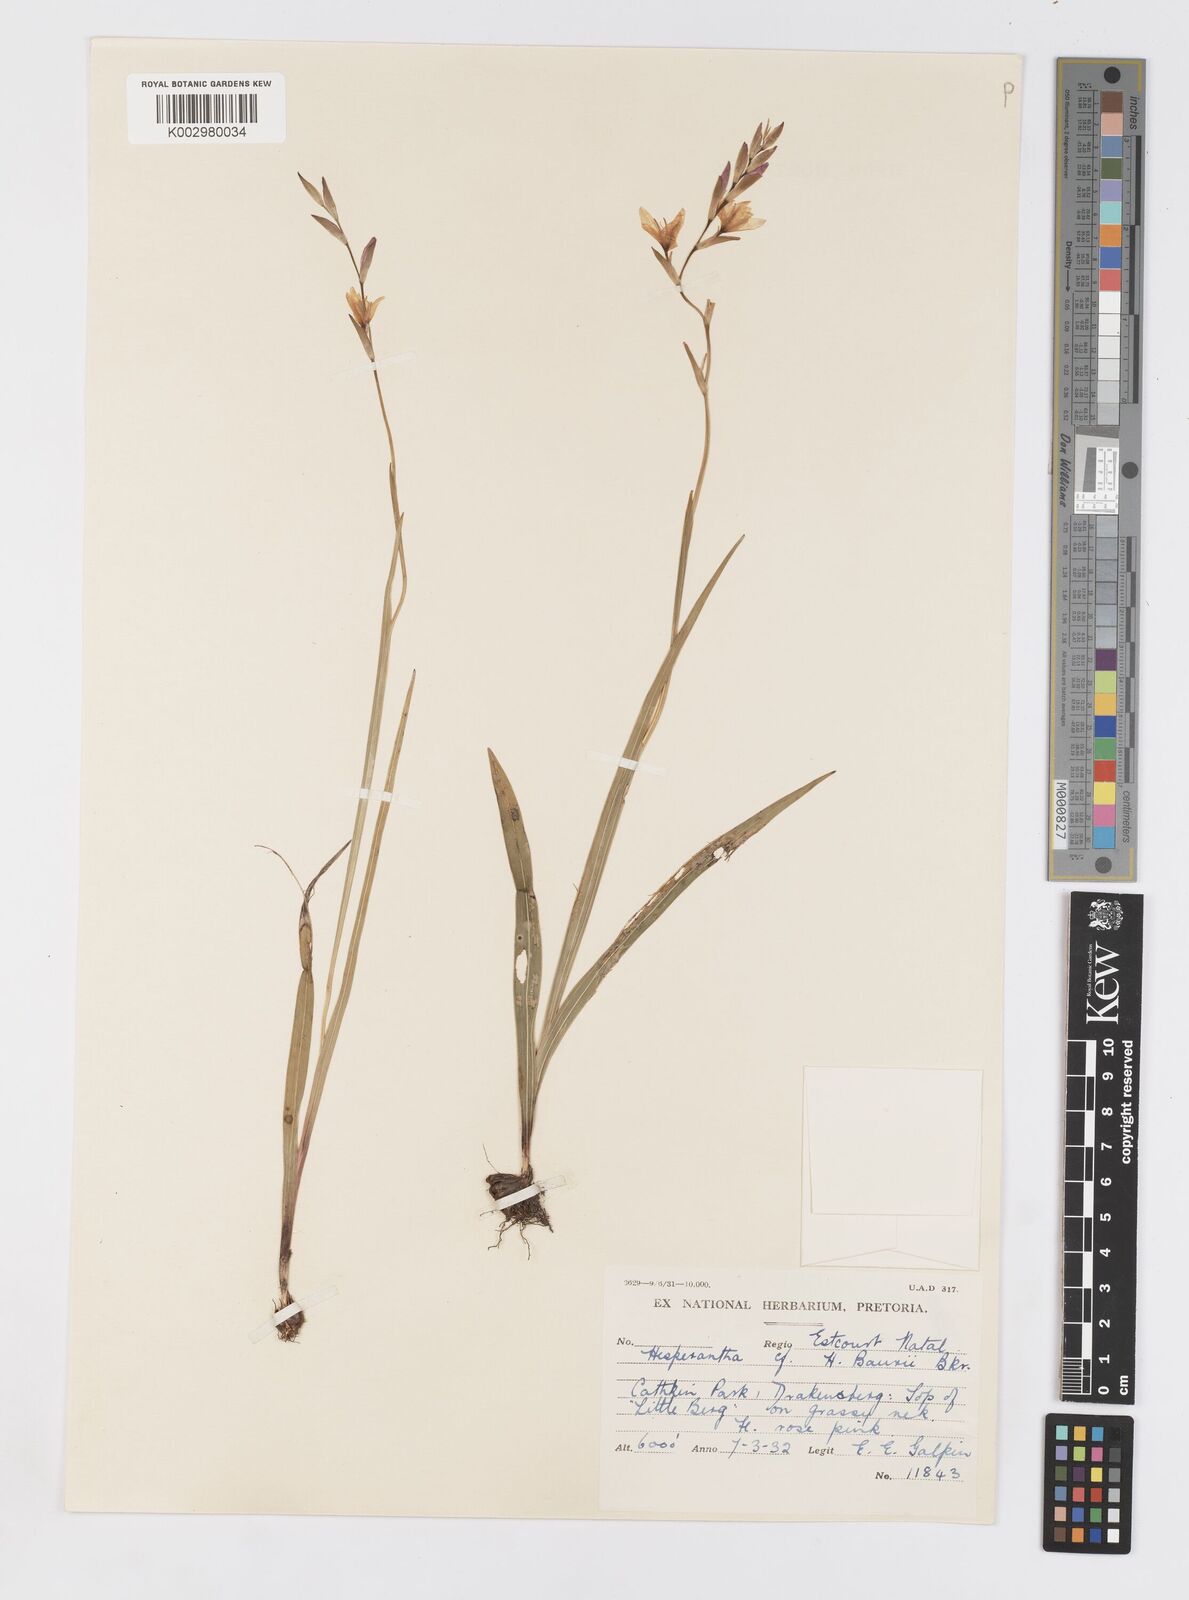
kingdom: Plantae
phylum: Tracheophyta
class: Liliopsida
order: Asparagales
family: Iridaceae
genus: Hesperantha
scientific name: Hesperantha baurii
